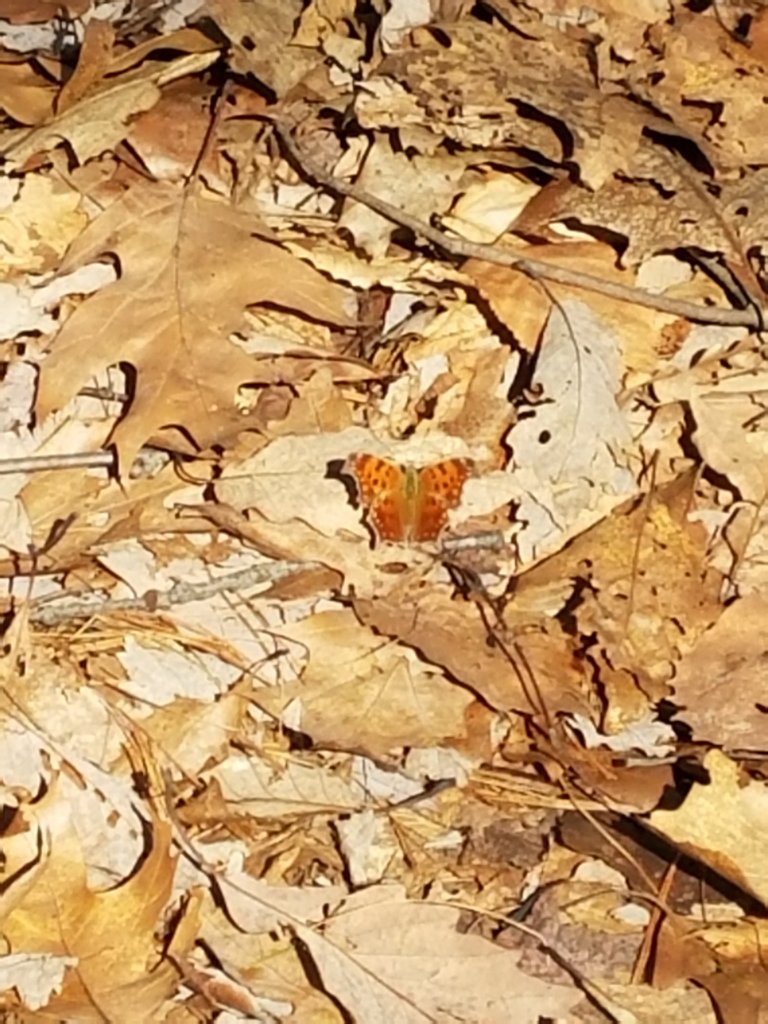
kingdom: Animalia
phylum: Arthropoda
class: Insecta
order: Lepidoptera
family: Nymphalidae
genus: Polygonia
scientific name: Polygonia comma
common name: Eastern Comma
